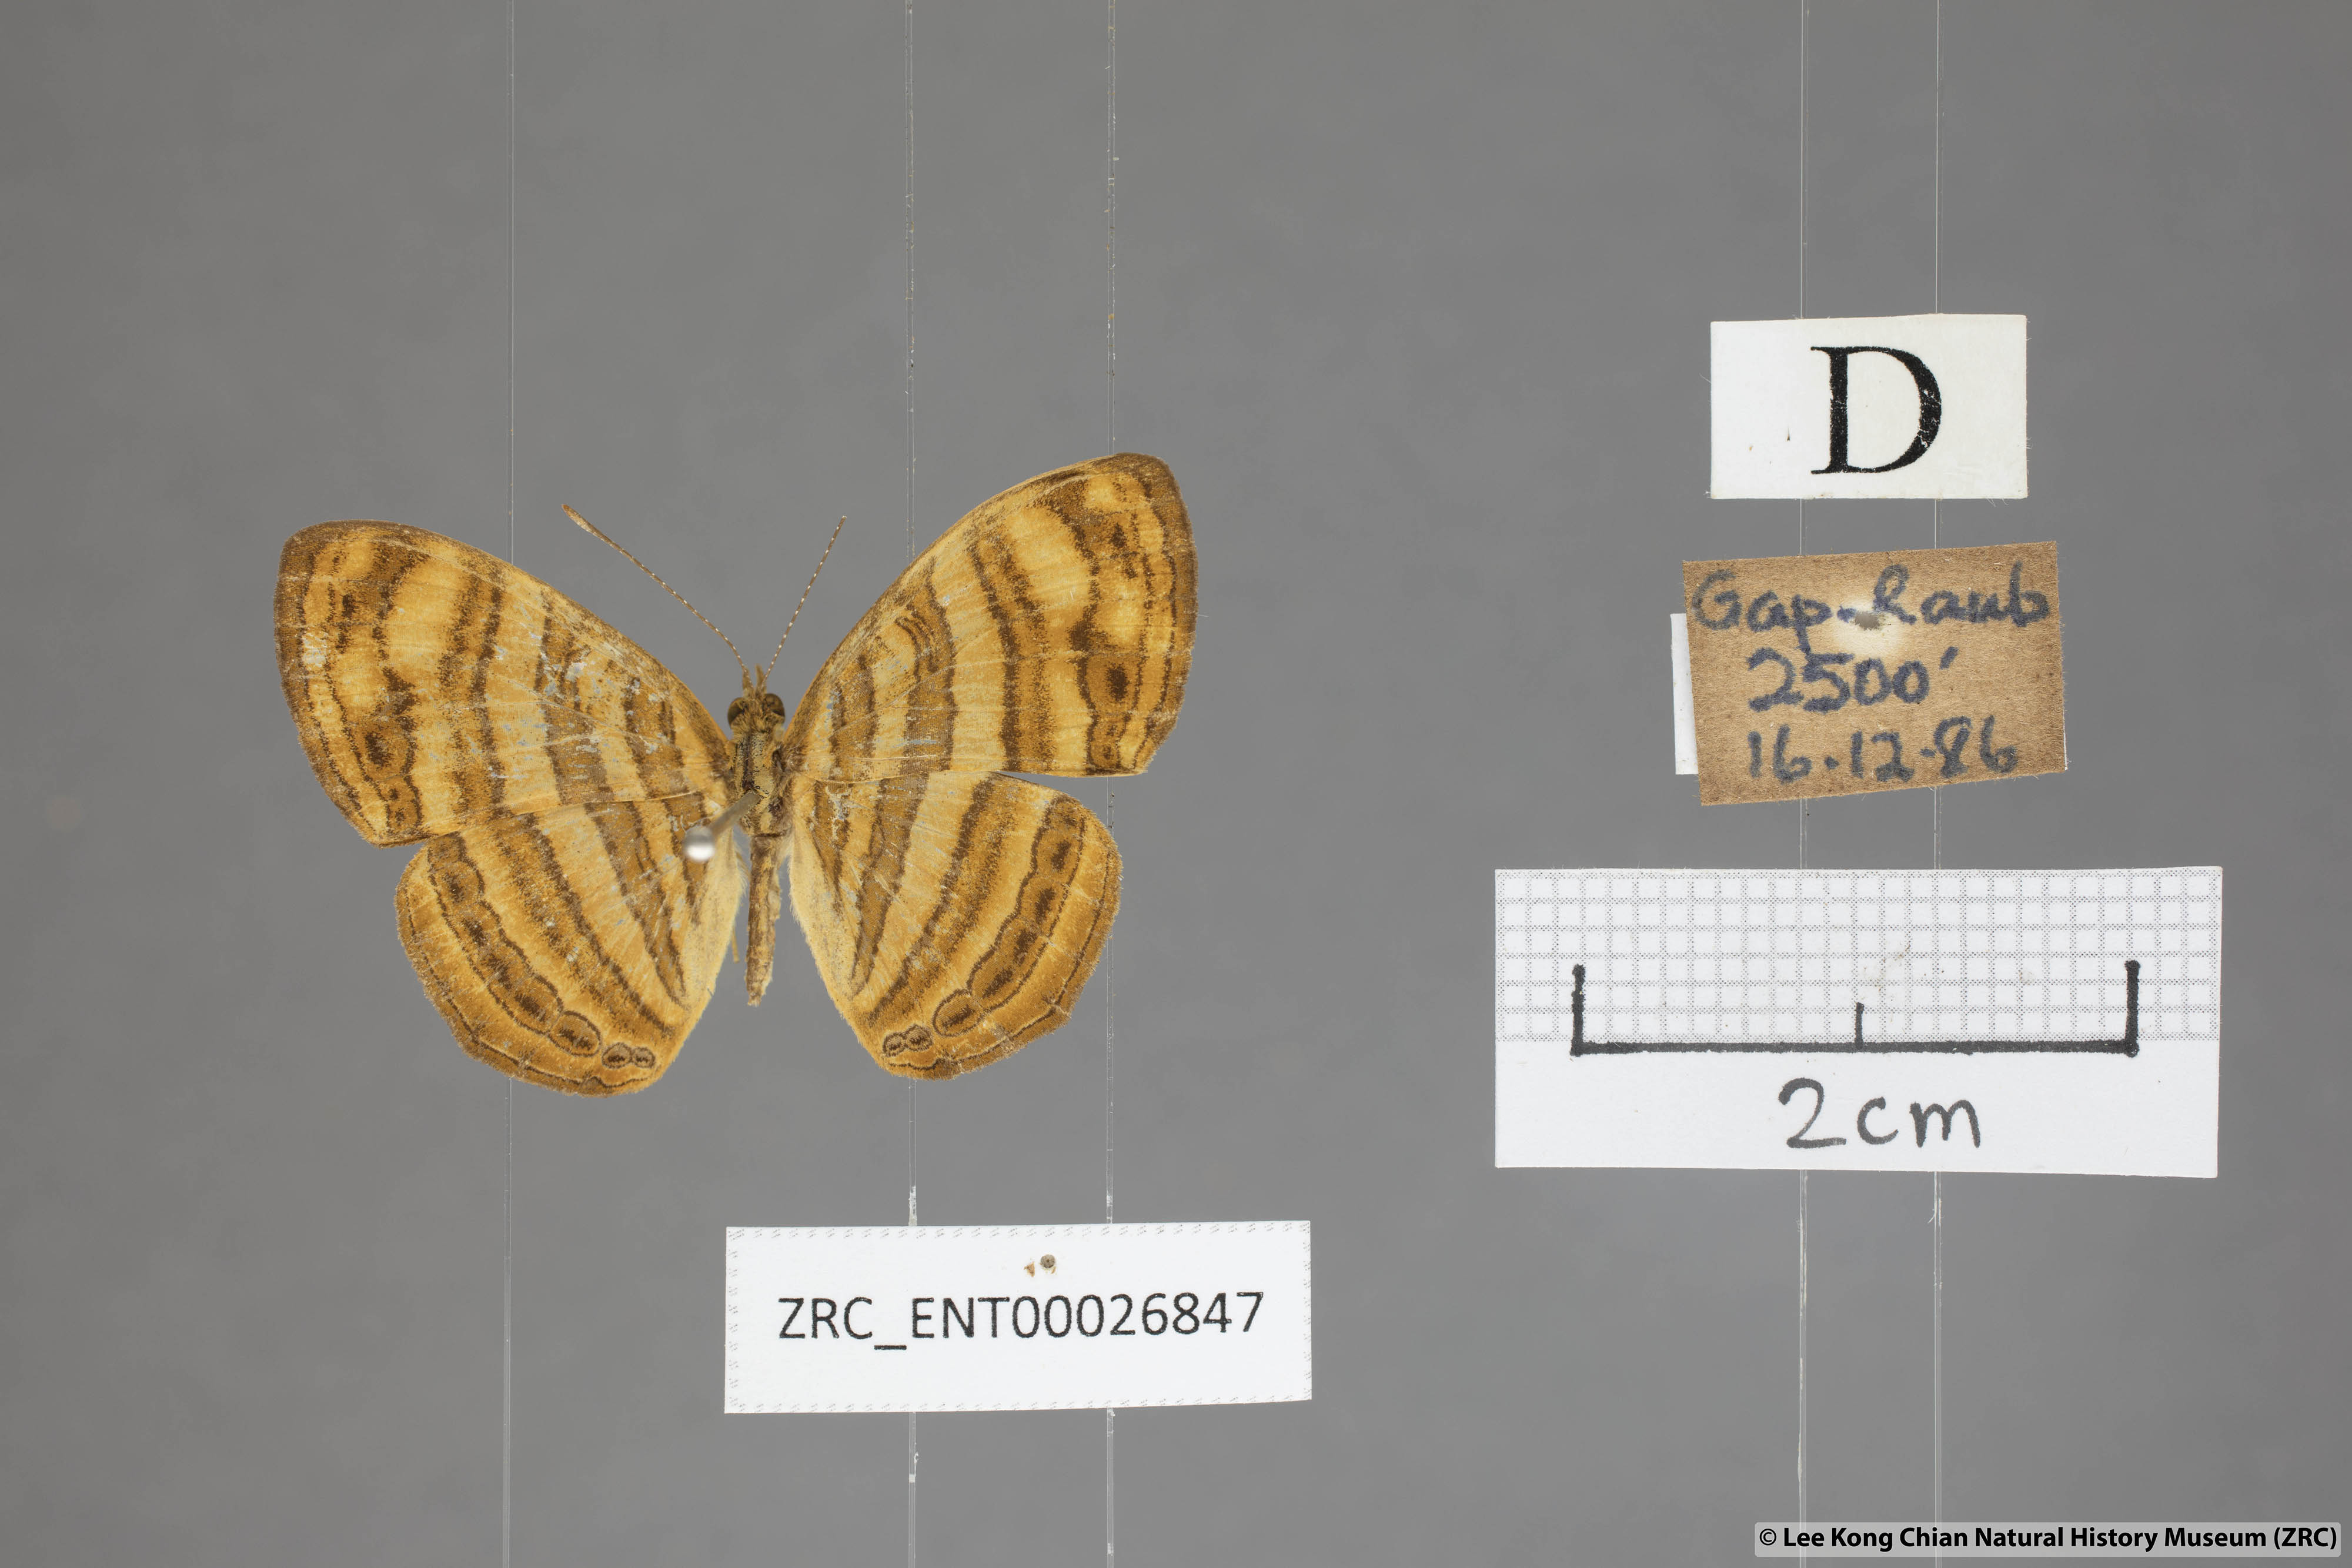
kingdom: Animalia
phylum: Arthropoda
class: Insecta
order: Lepidoptera
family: Nymphalidae
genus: Chersonesia
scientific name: Chersonesia peraka
